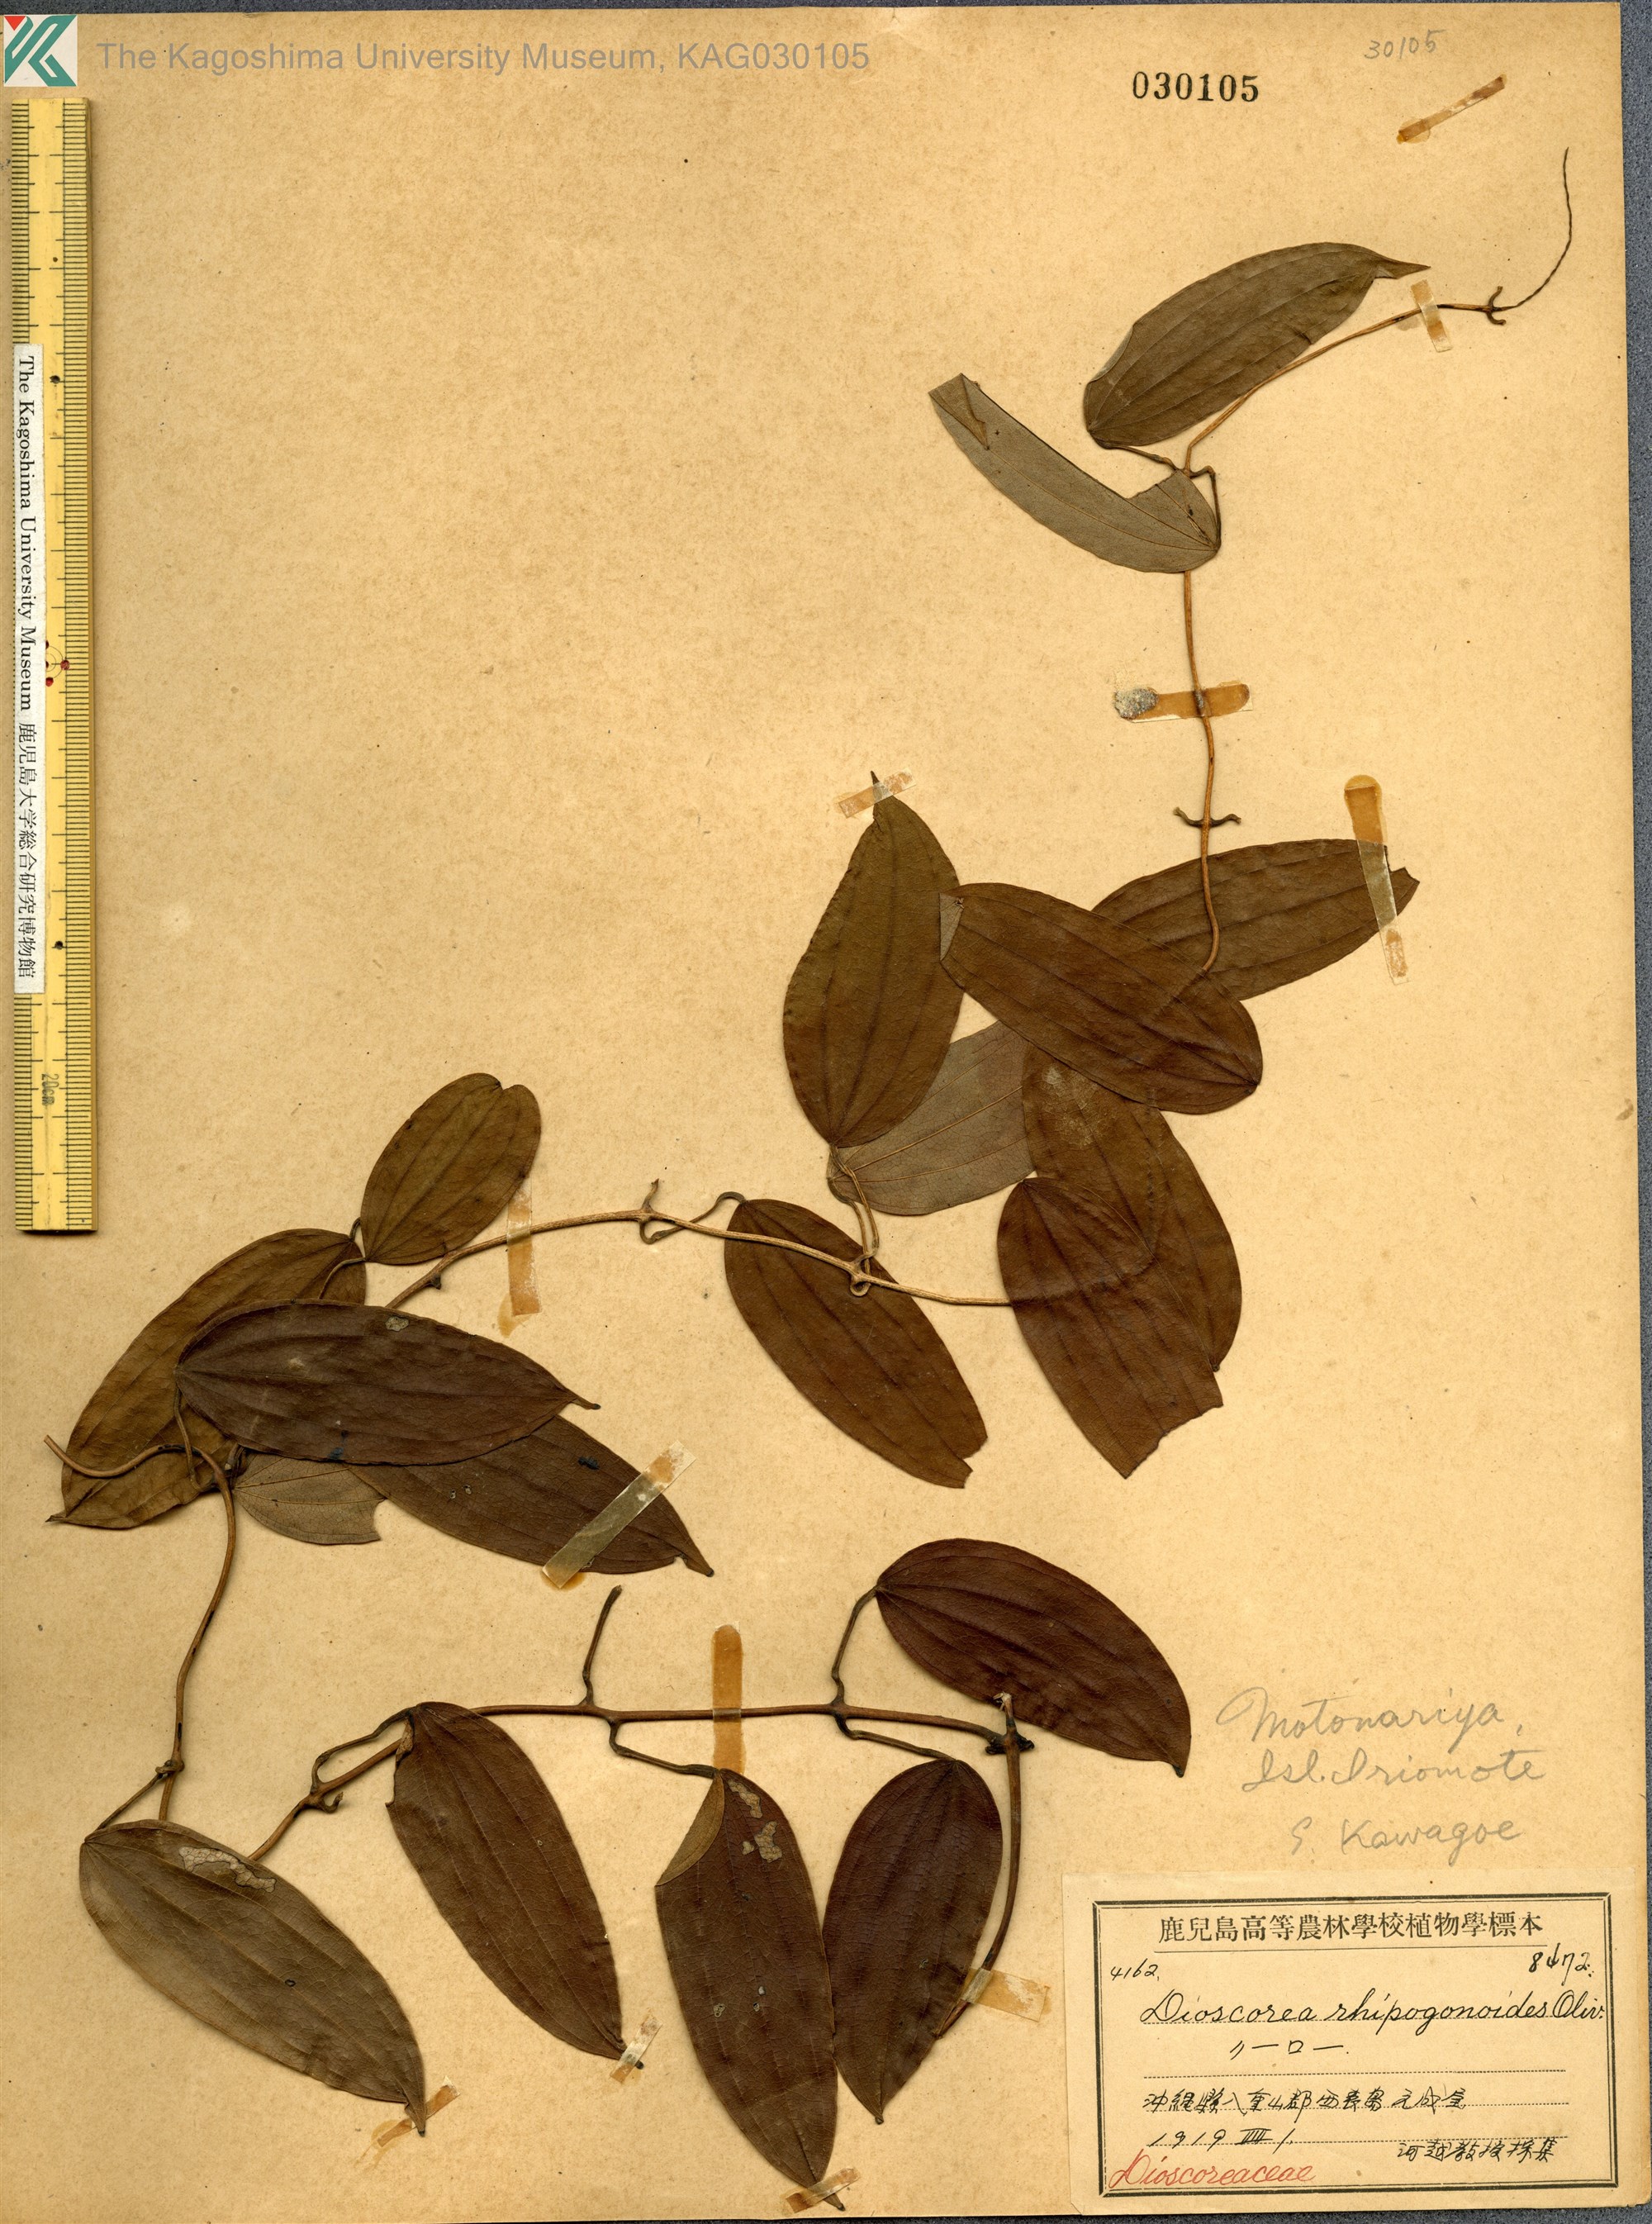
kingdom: Plantae
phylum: Tracheophyta
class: Liliopsida
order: Dioscoreales
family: Dioscoreaceae
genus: Dioscorea
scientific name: Dioscorea cirrhosa
